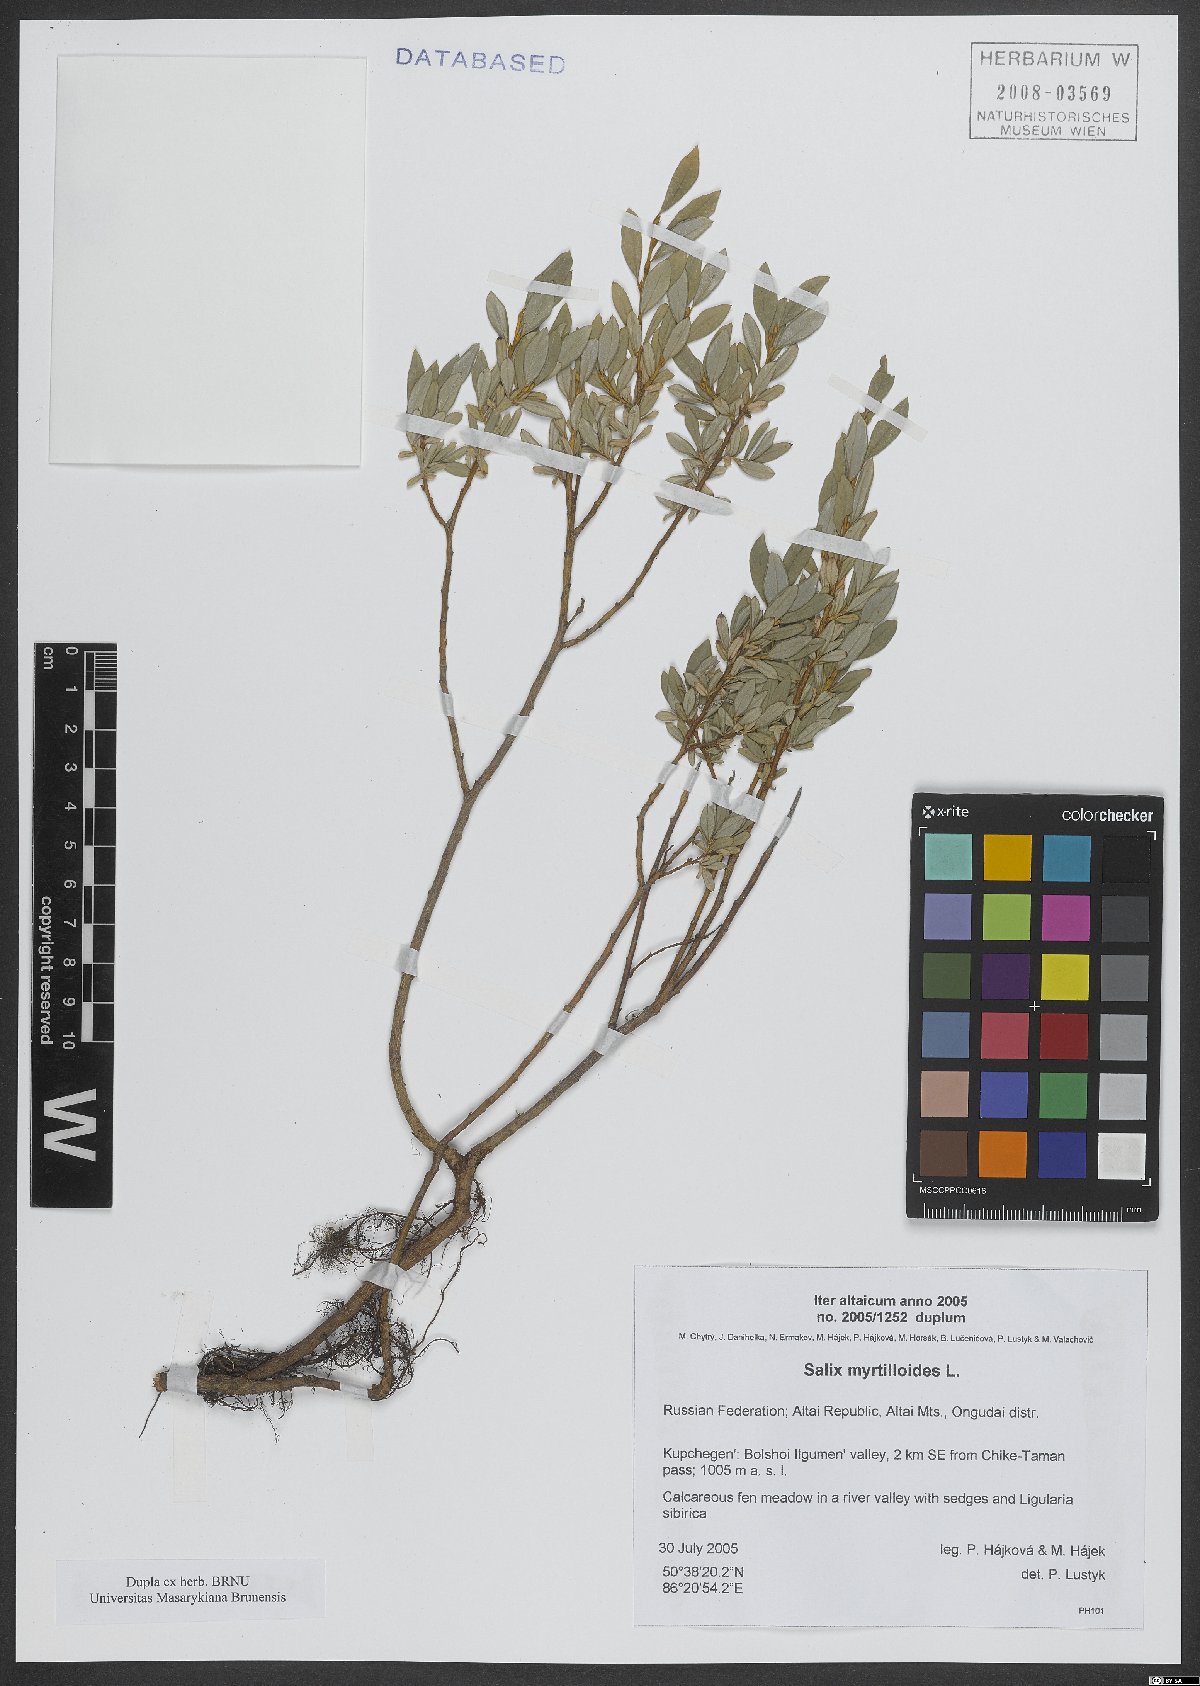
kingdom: Plantae
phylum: Tracheophyta
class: Magnoliopsida
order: Malpighiales
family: Salicaceae
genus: Salix
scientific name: Salix myrtilloides
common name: Myrtle-leaved willow
